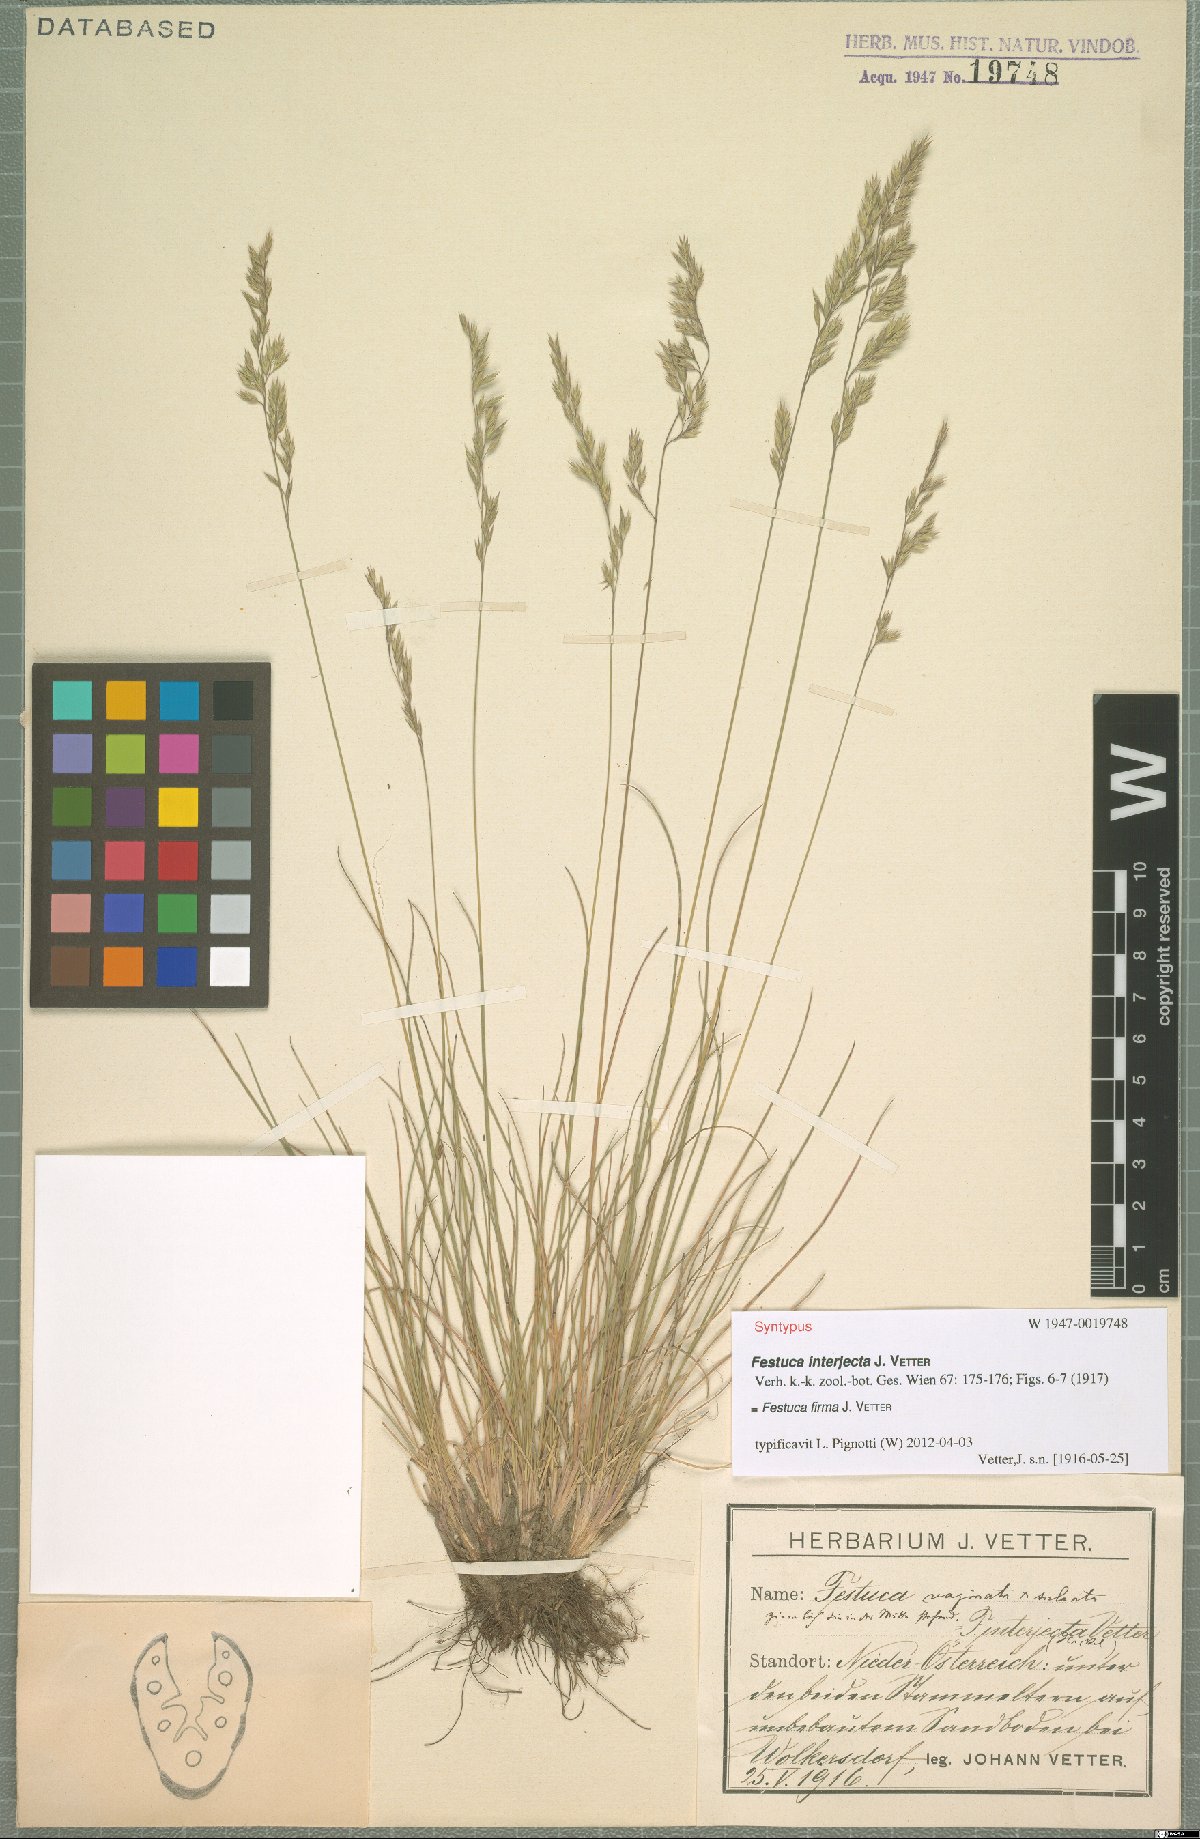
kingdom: Plantae
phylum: Tracheophyta
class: Liliopsida
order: Poales
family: Poaceae
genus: Festuca
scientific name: Festuca pulchra
